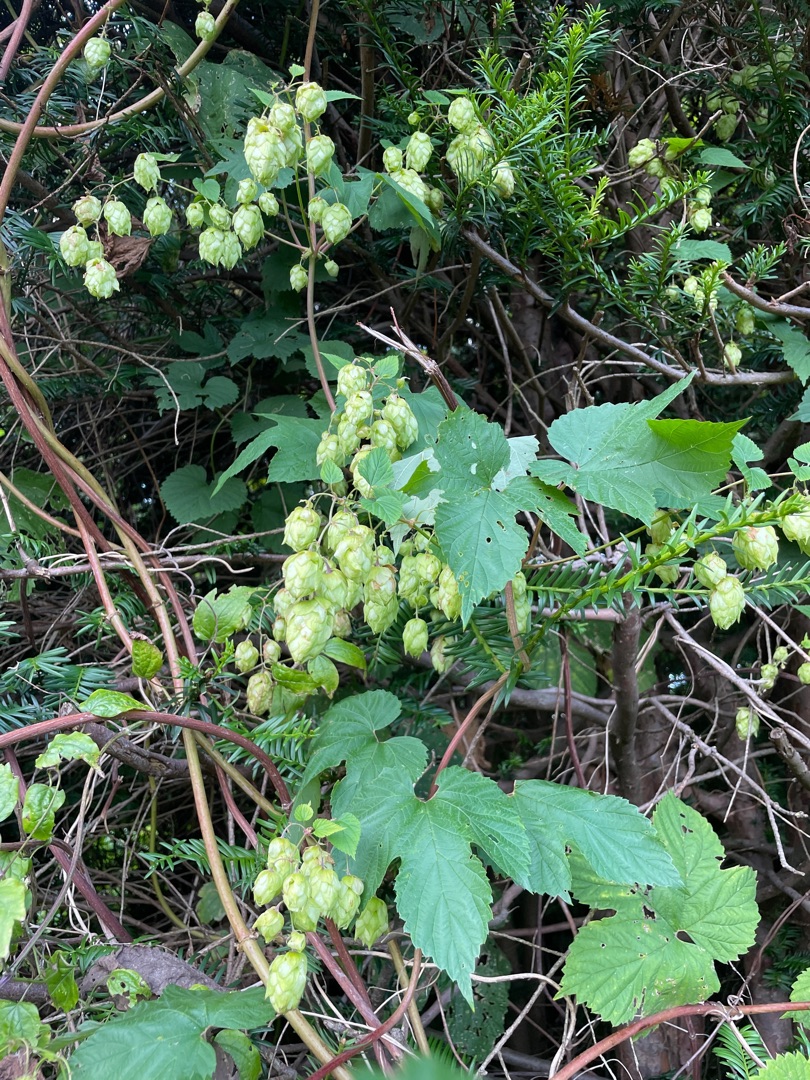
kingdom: Plantae
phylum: Tracheophyta
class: Magnoliopsida
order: Rosales
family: Cannabaceae
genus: Humulus
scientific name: Humulus lupulus
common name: Humle
